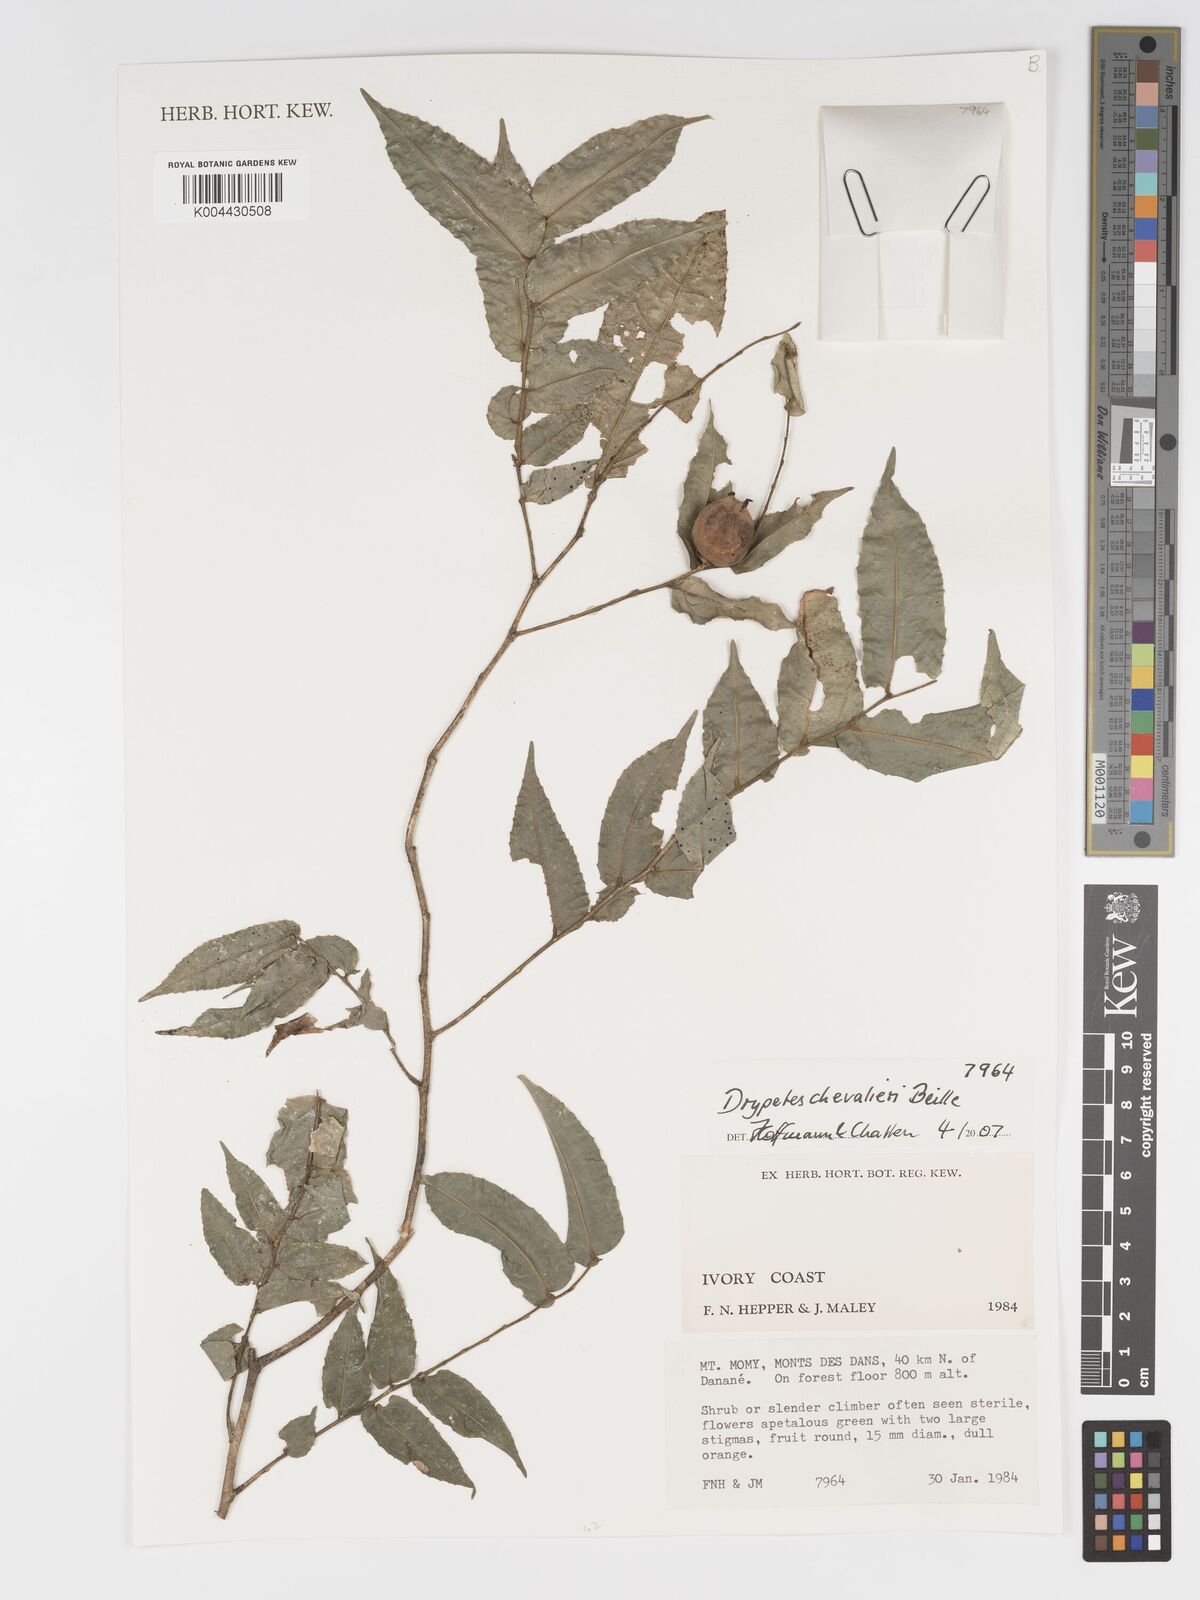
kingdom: Plantae
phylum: Tracheophyta
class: Magnoliopsida
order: Malpighiales
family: Putranjivaceae
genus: Drypetes
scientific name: Drypetes chevalieri
